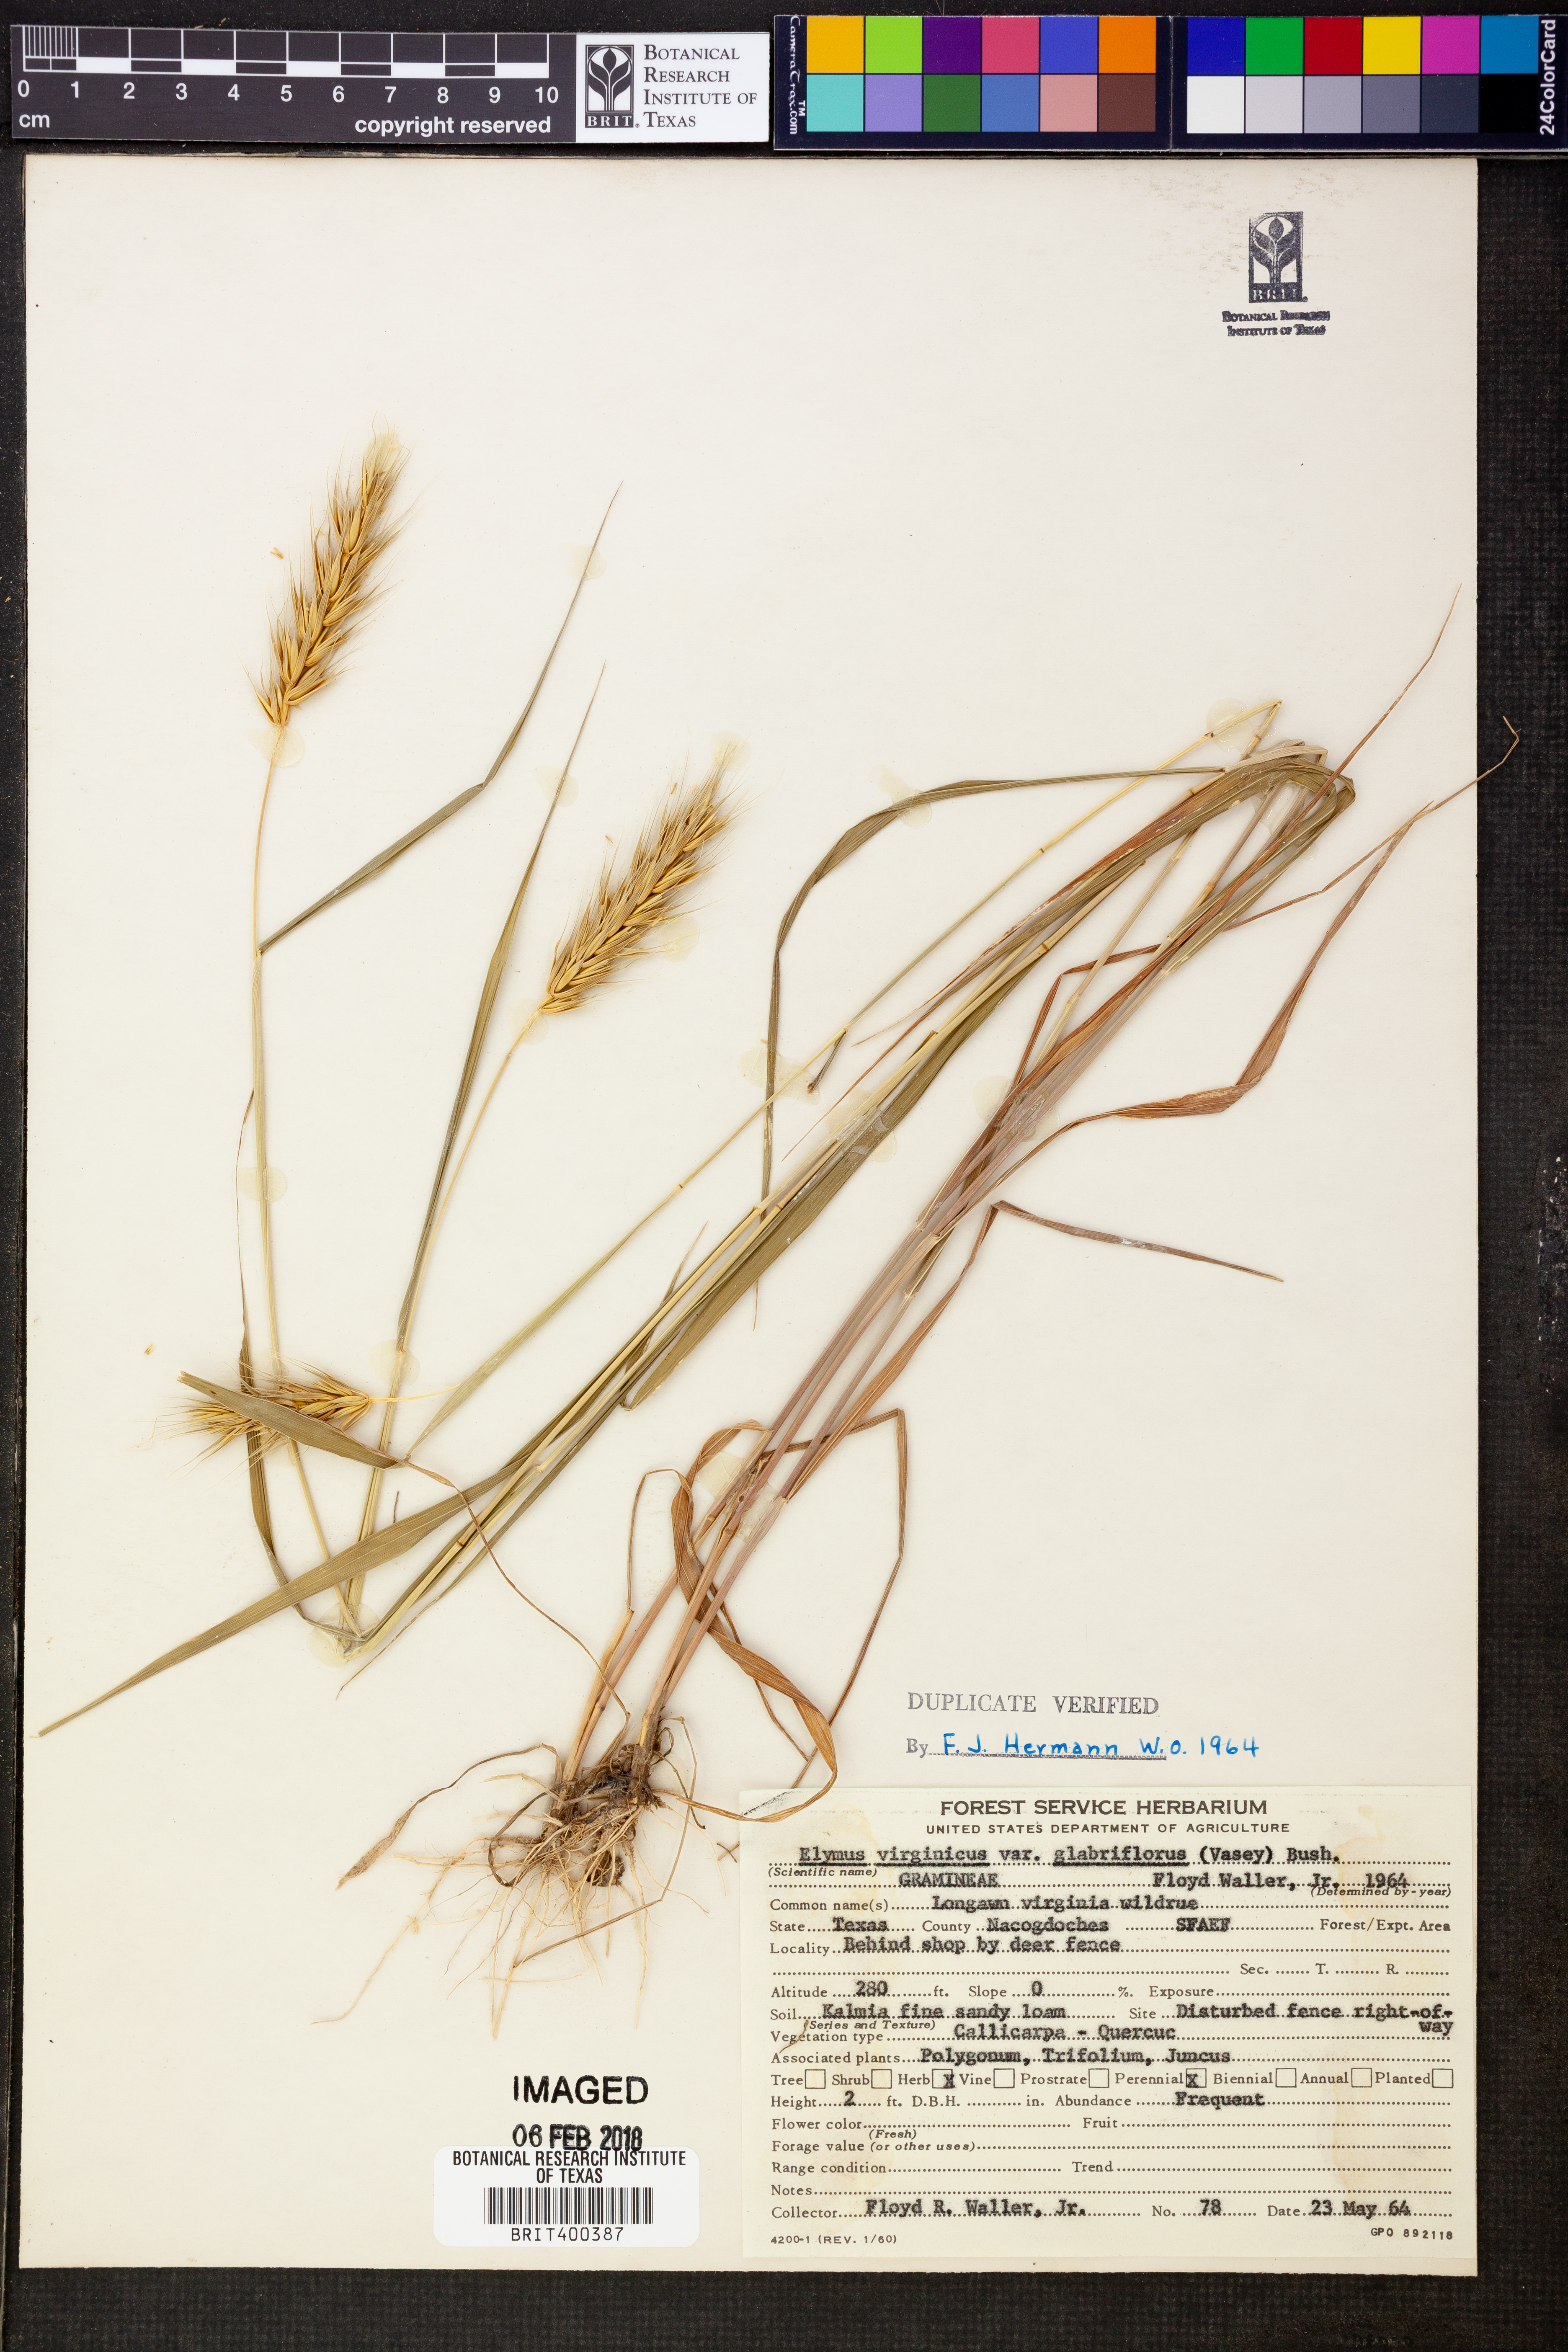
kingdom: Plantae
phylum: Tracheophyta
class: Liliopsida
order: Poales
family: Poaceae
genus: Elymus
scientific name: Elymus virginicus
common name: Common eastern wildrye
